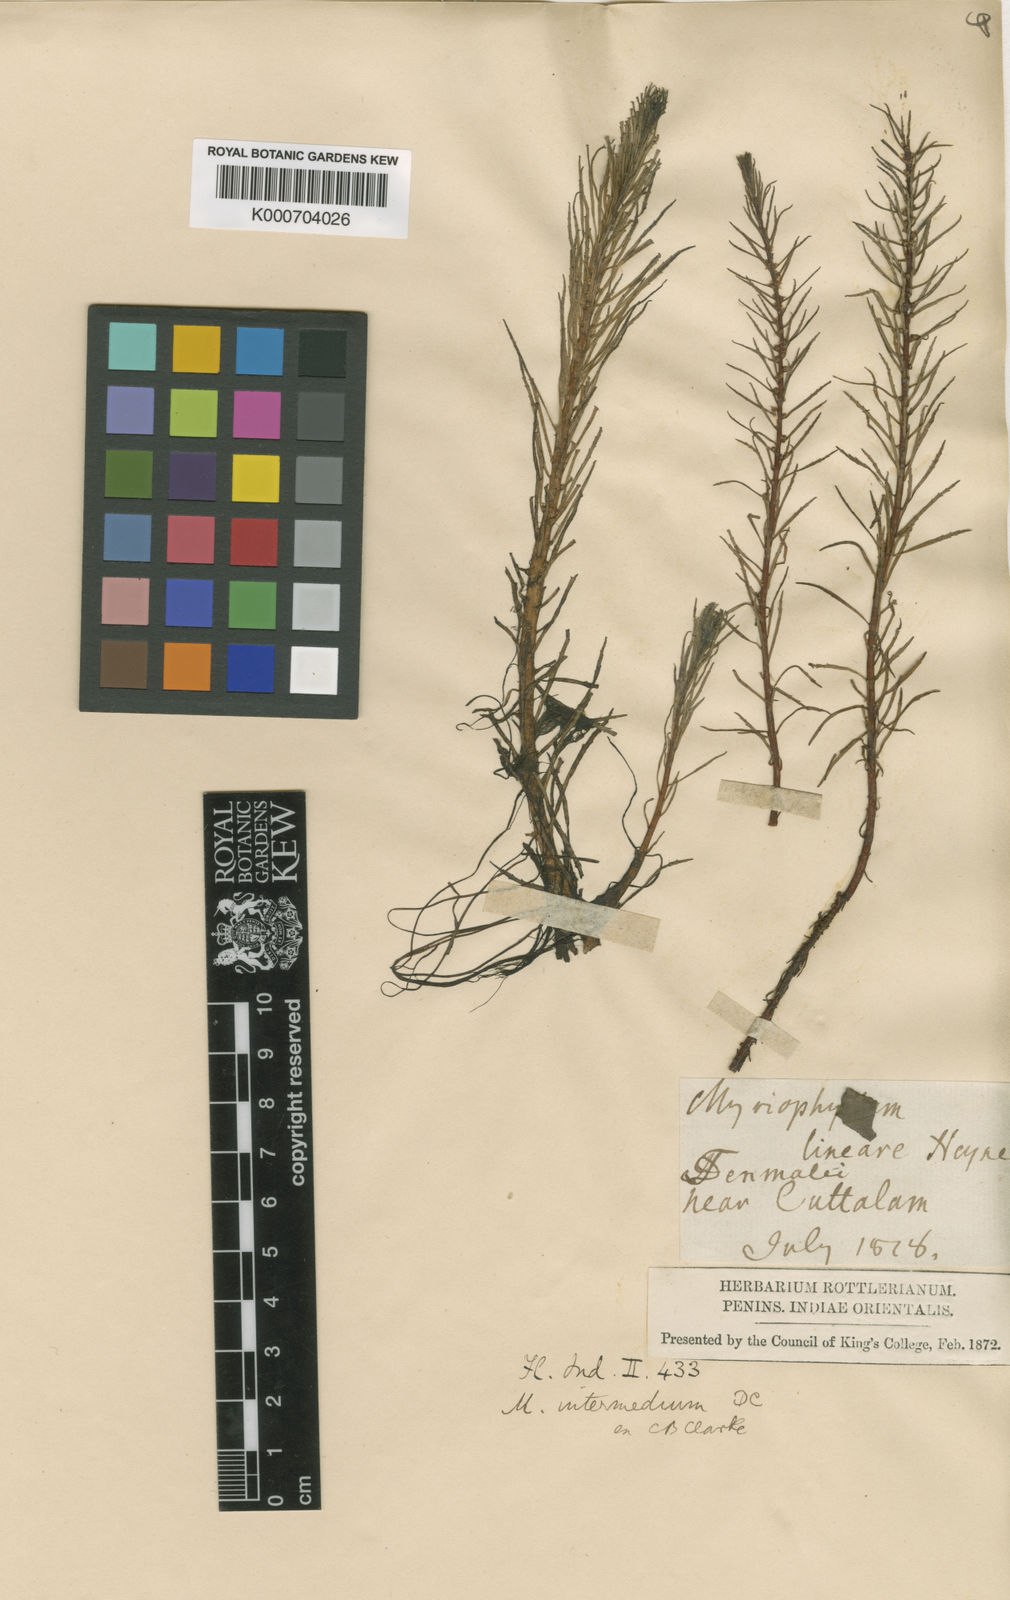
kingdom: Plantae
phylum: Tracheophyta
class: Magnoliopsida
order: Saxifragales
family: Haloragaceae
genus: Myriophyllum
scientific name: Myriophyllum indicum
